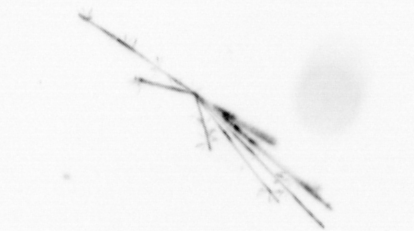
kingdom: Chromista
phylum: Ochrophyta
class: Bacillariophyceae
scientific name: Bacillariophyceae
